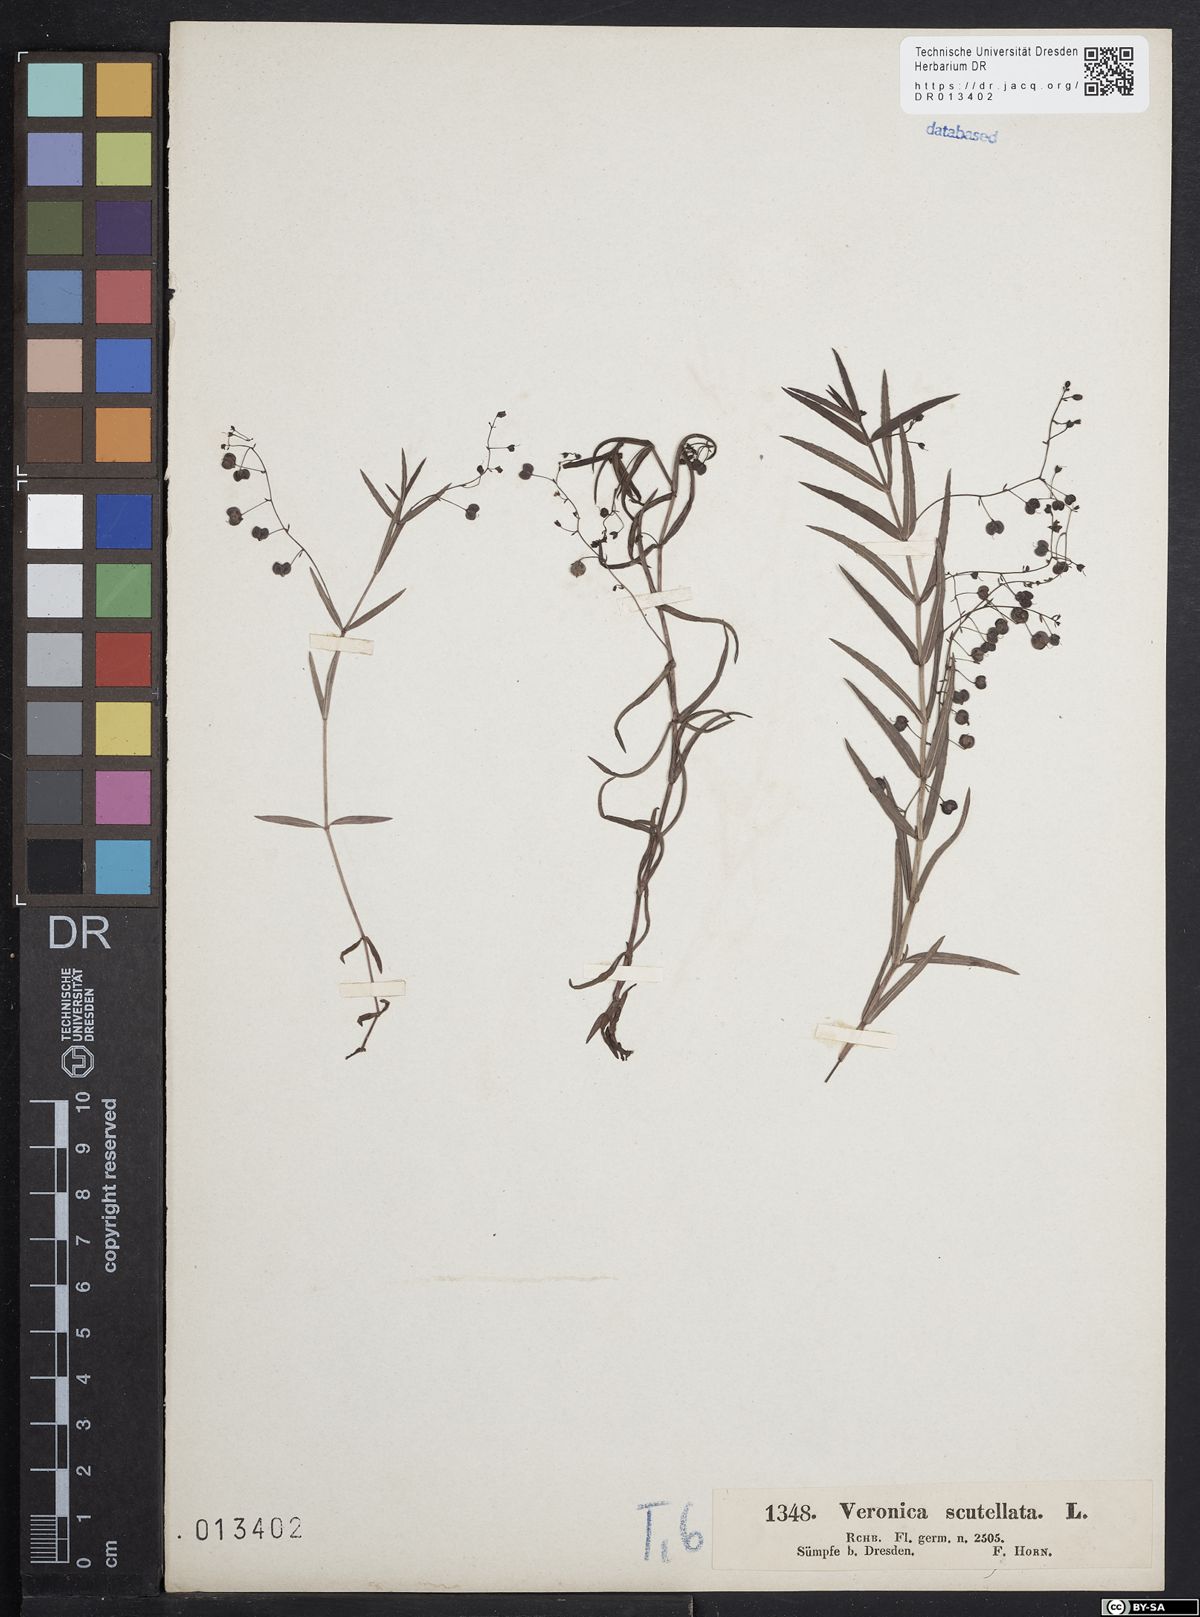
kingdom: Plantae
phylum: Tracheophyta
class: Magnoliopsida
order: Lamiales
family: Plantaginaceae
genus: Veronica
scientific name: Veronica scutellata
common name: Marsh speedwell
